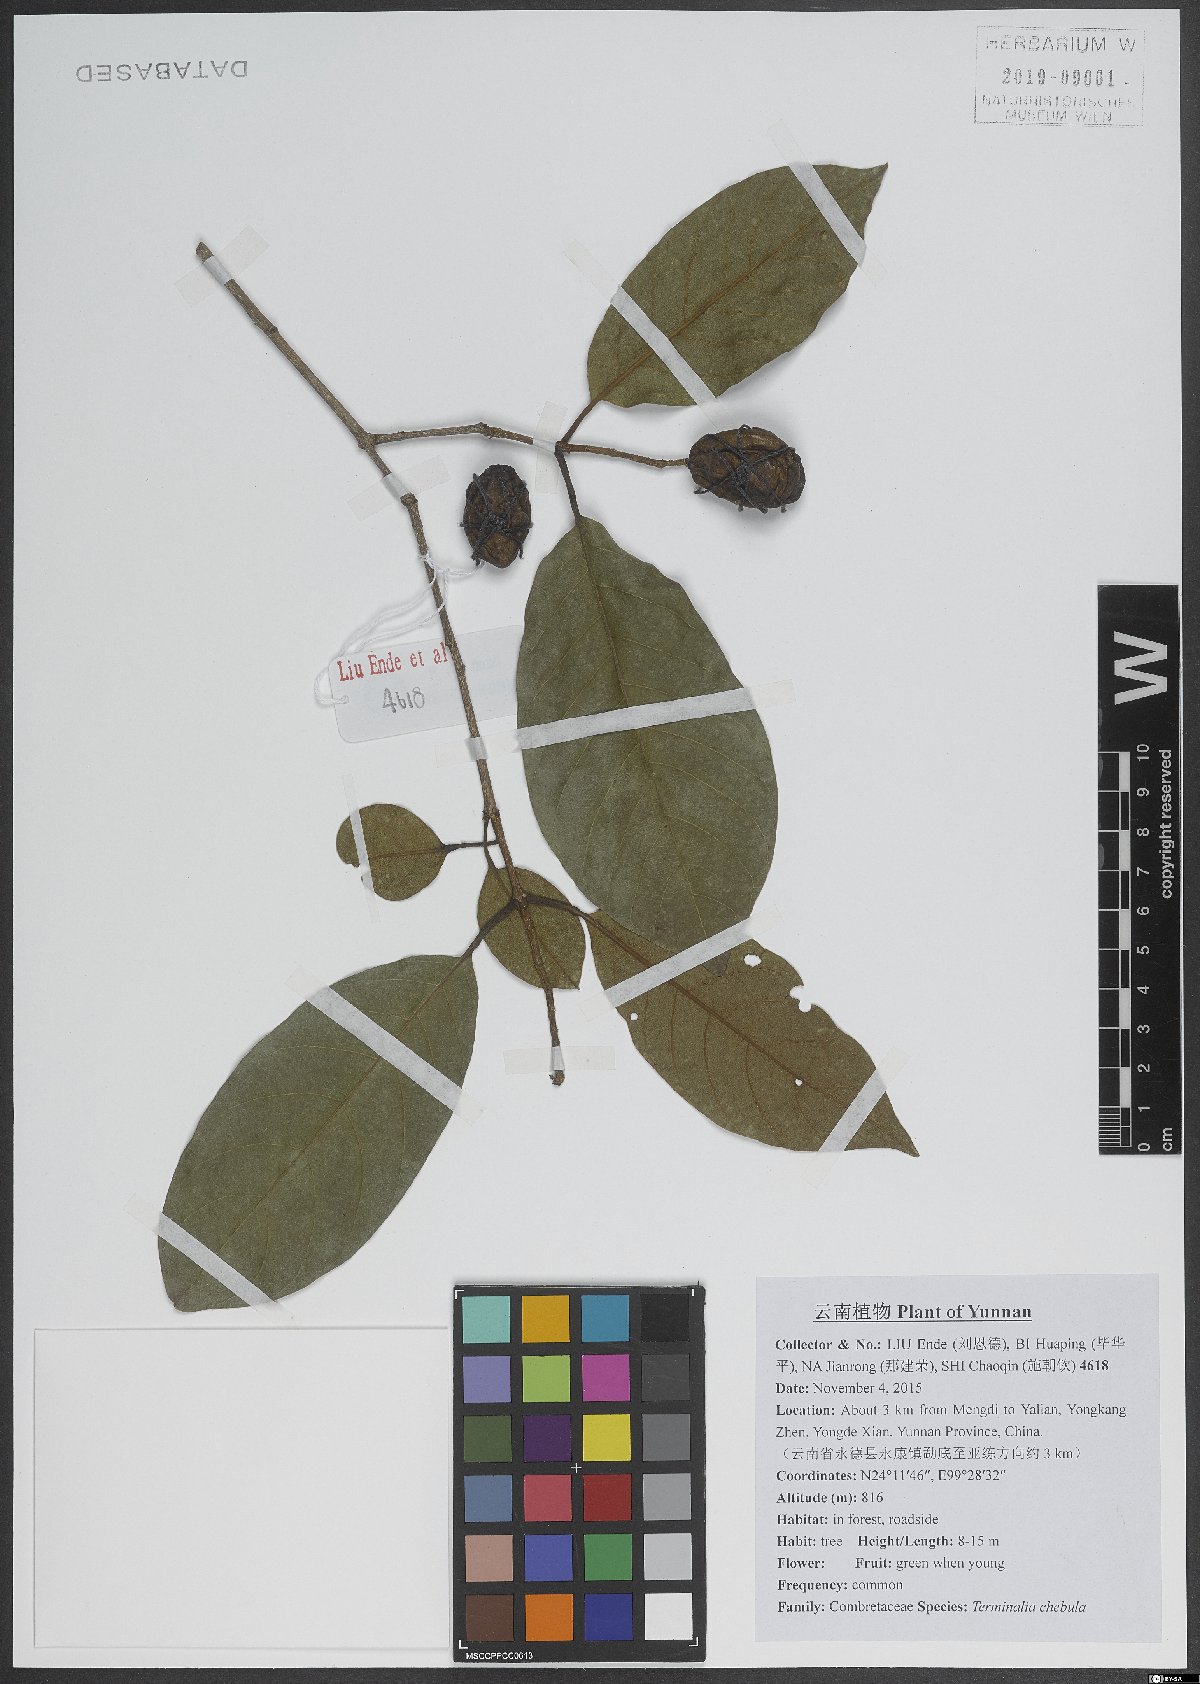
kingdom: Plantae
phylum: Tracheophyta
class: Magnoliopsida
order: Myrtales
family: Combretaceae
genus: Terminalia
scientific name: Terminalia chebula
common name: Myrobalan
